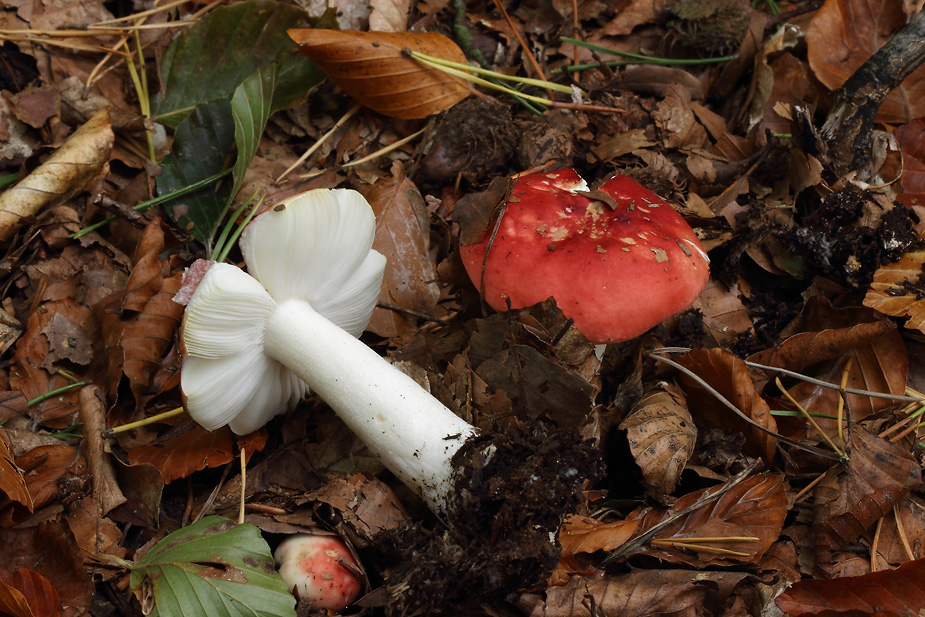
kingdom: Fungi
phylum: Basidiomycota
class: Agaricomycetes
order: Russulales
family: Russulaceae
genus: Russula
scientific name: Russula silvestris
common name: mellemstor gift-skørhat
